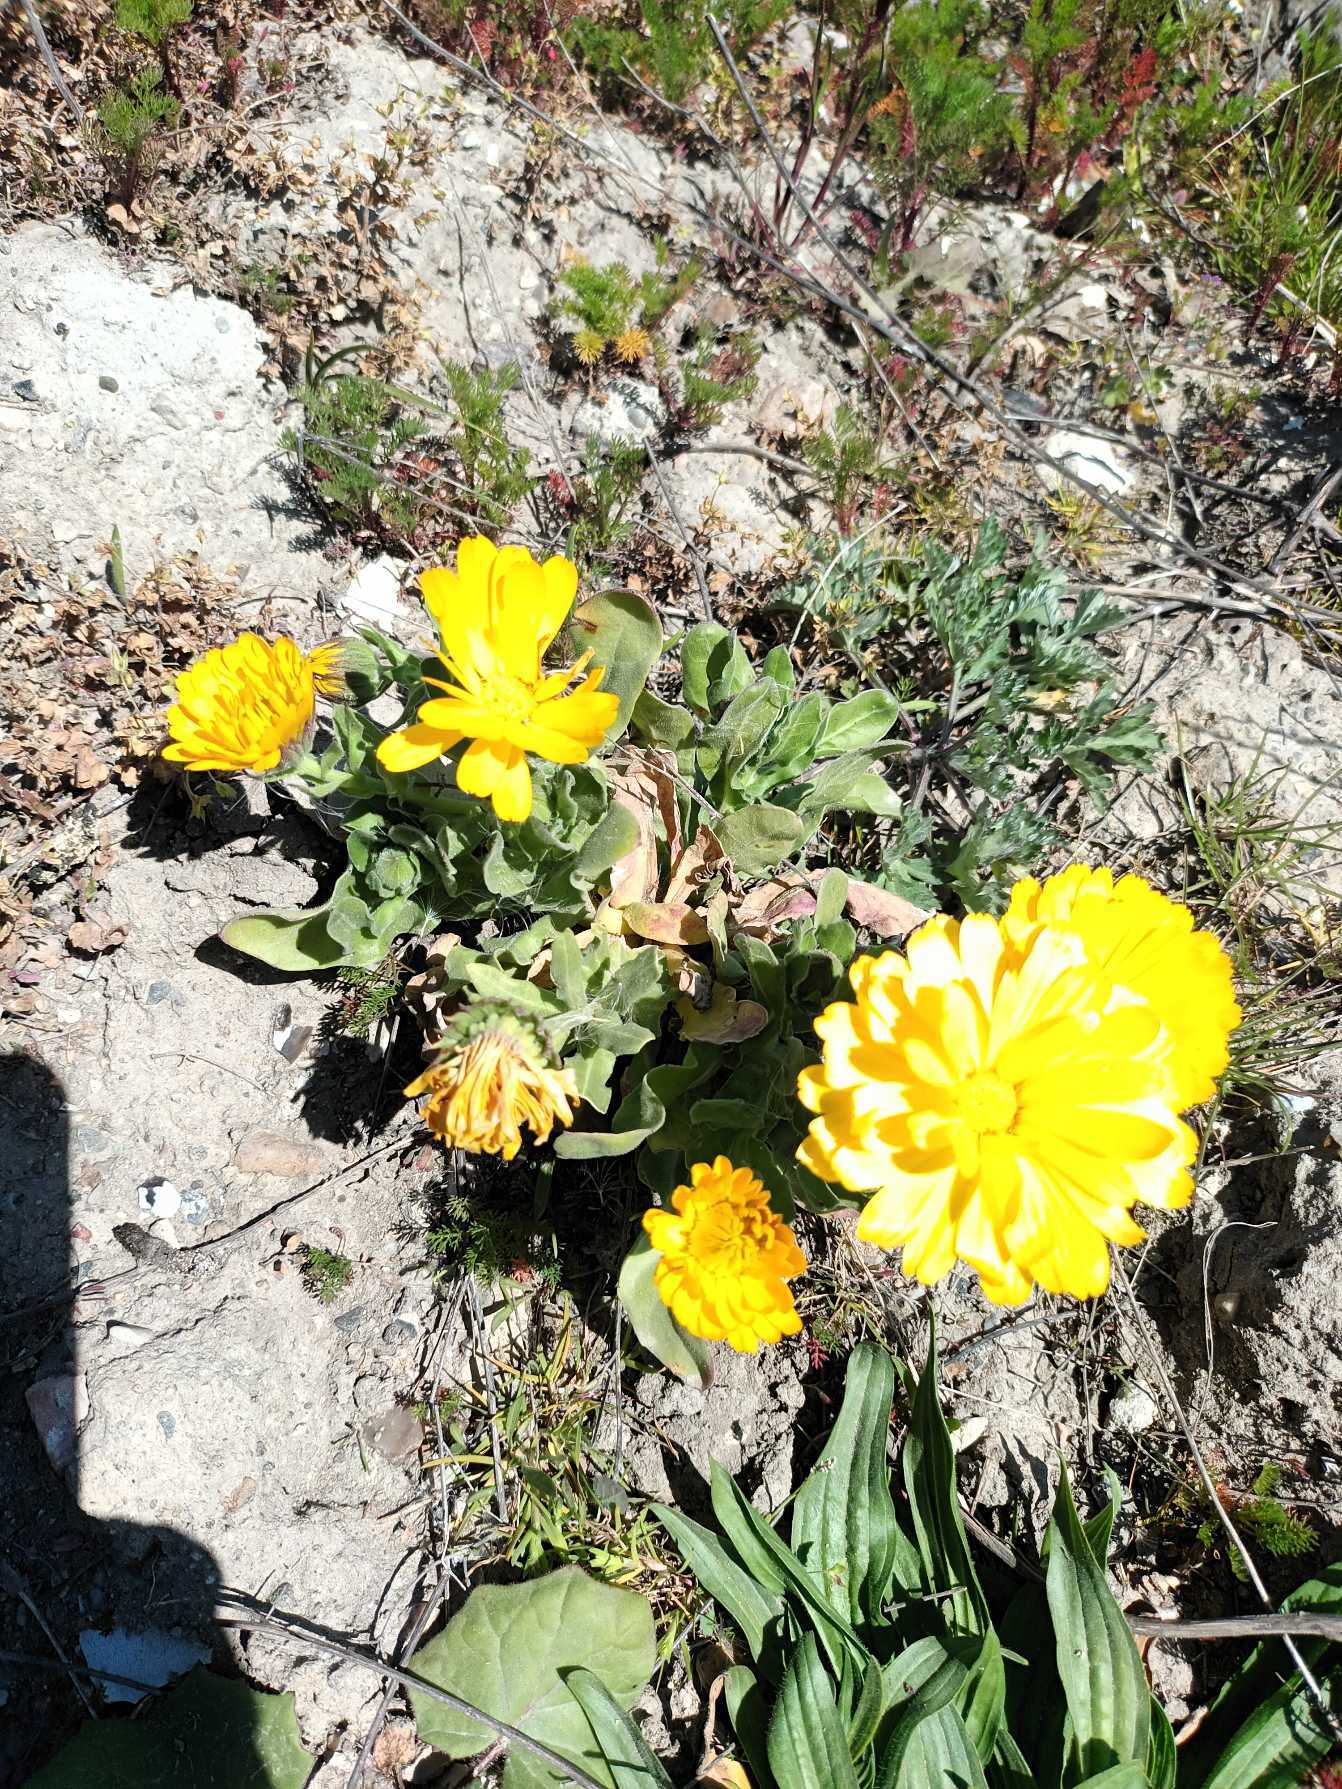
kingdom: Plantae
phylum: Tracheophyta
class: Magnoliopsida
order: Asterales
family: Asteraceae
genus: Calendula
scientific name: Calendula officinalis
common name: Have-morgenfrue
